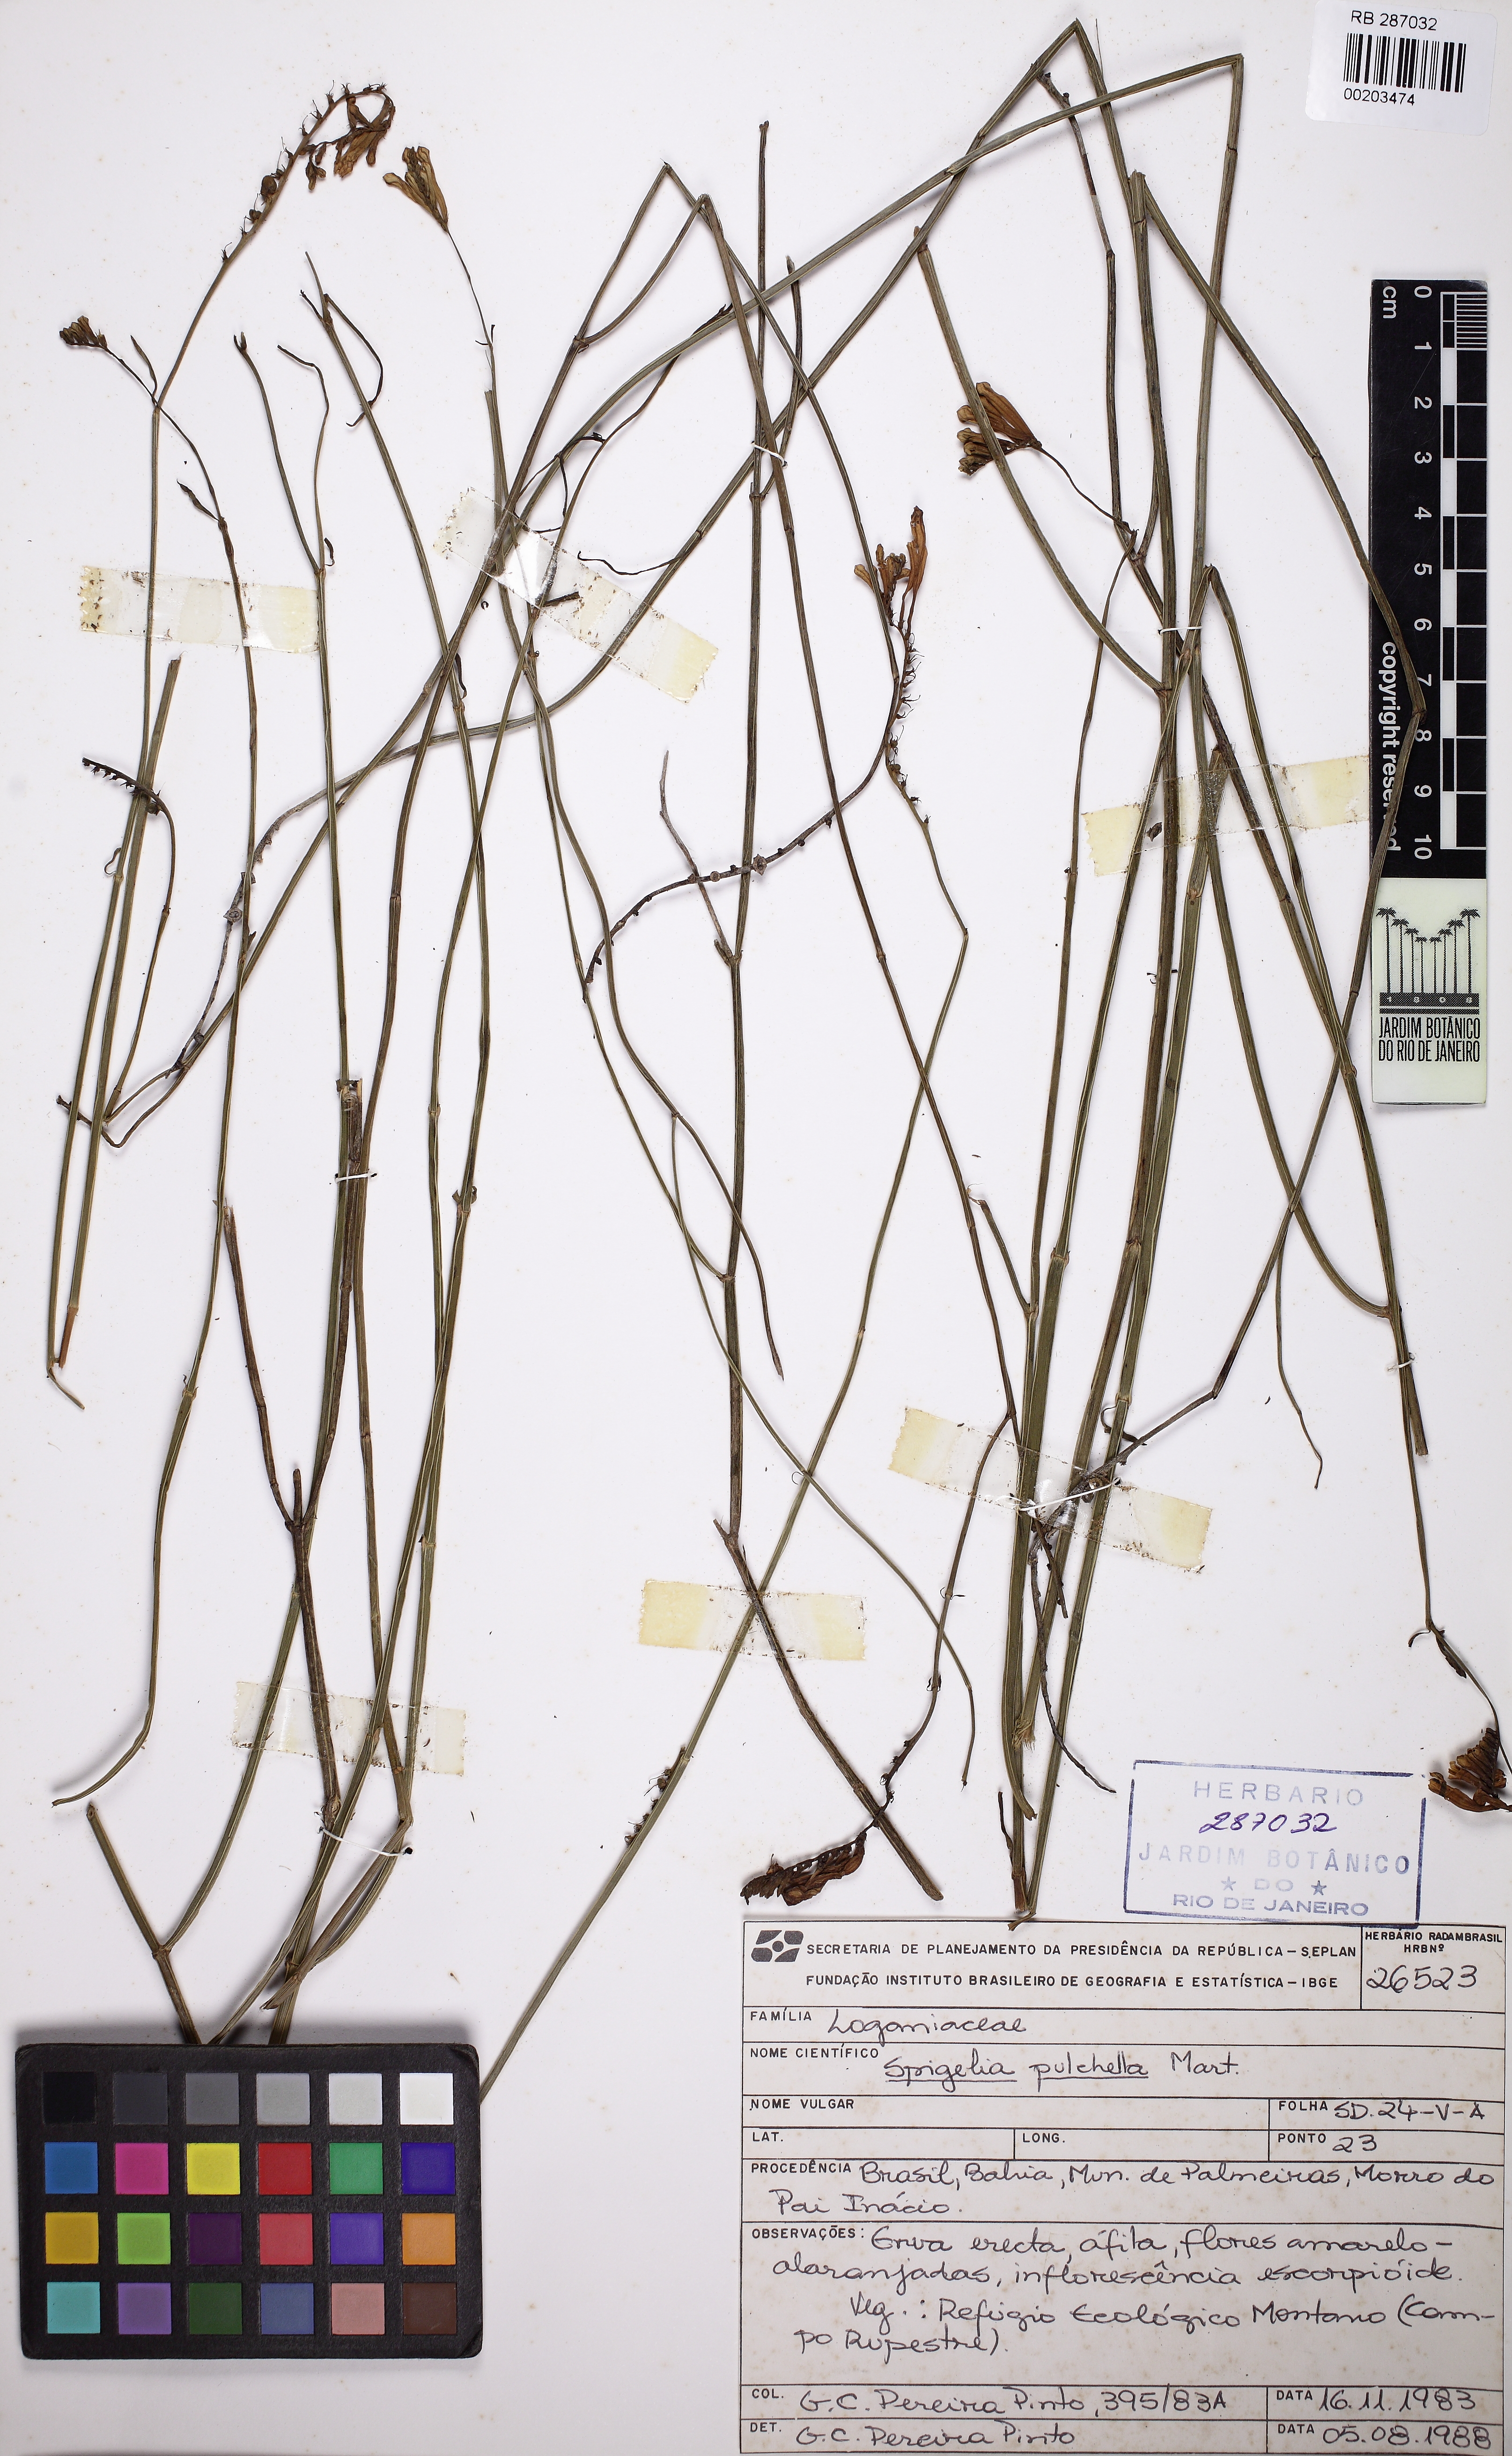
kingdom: Plantae
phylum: Tracheophyta
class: Magnoliopsida
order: Gentianales
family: Loganiaceae
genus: Spigelia
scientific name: Spigelia pulchella
